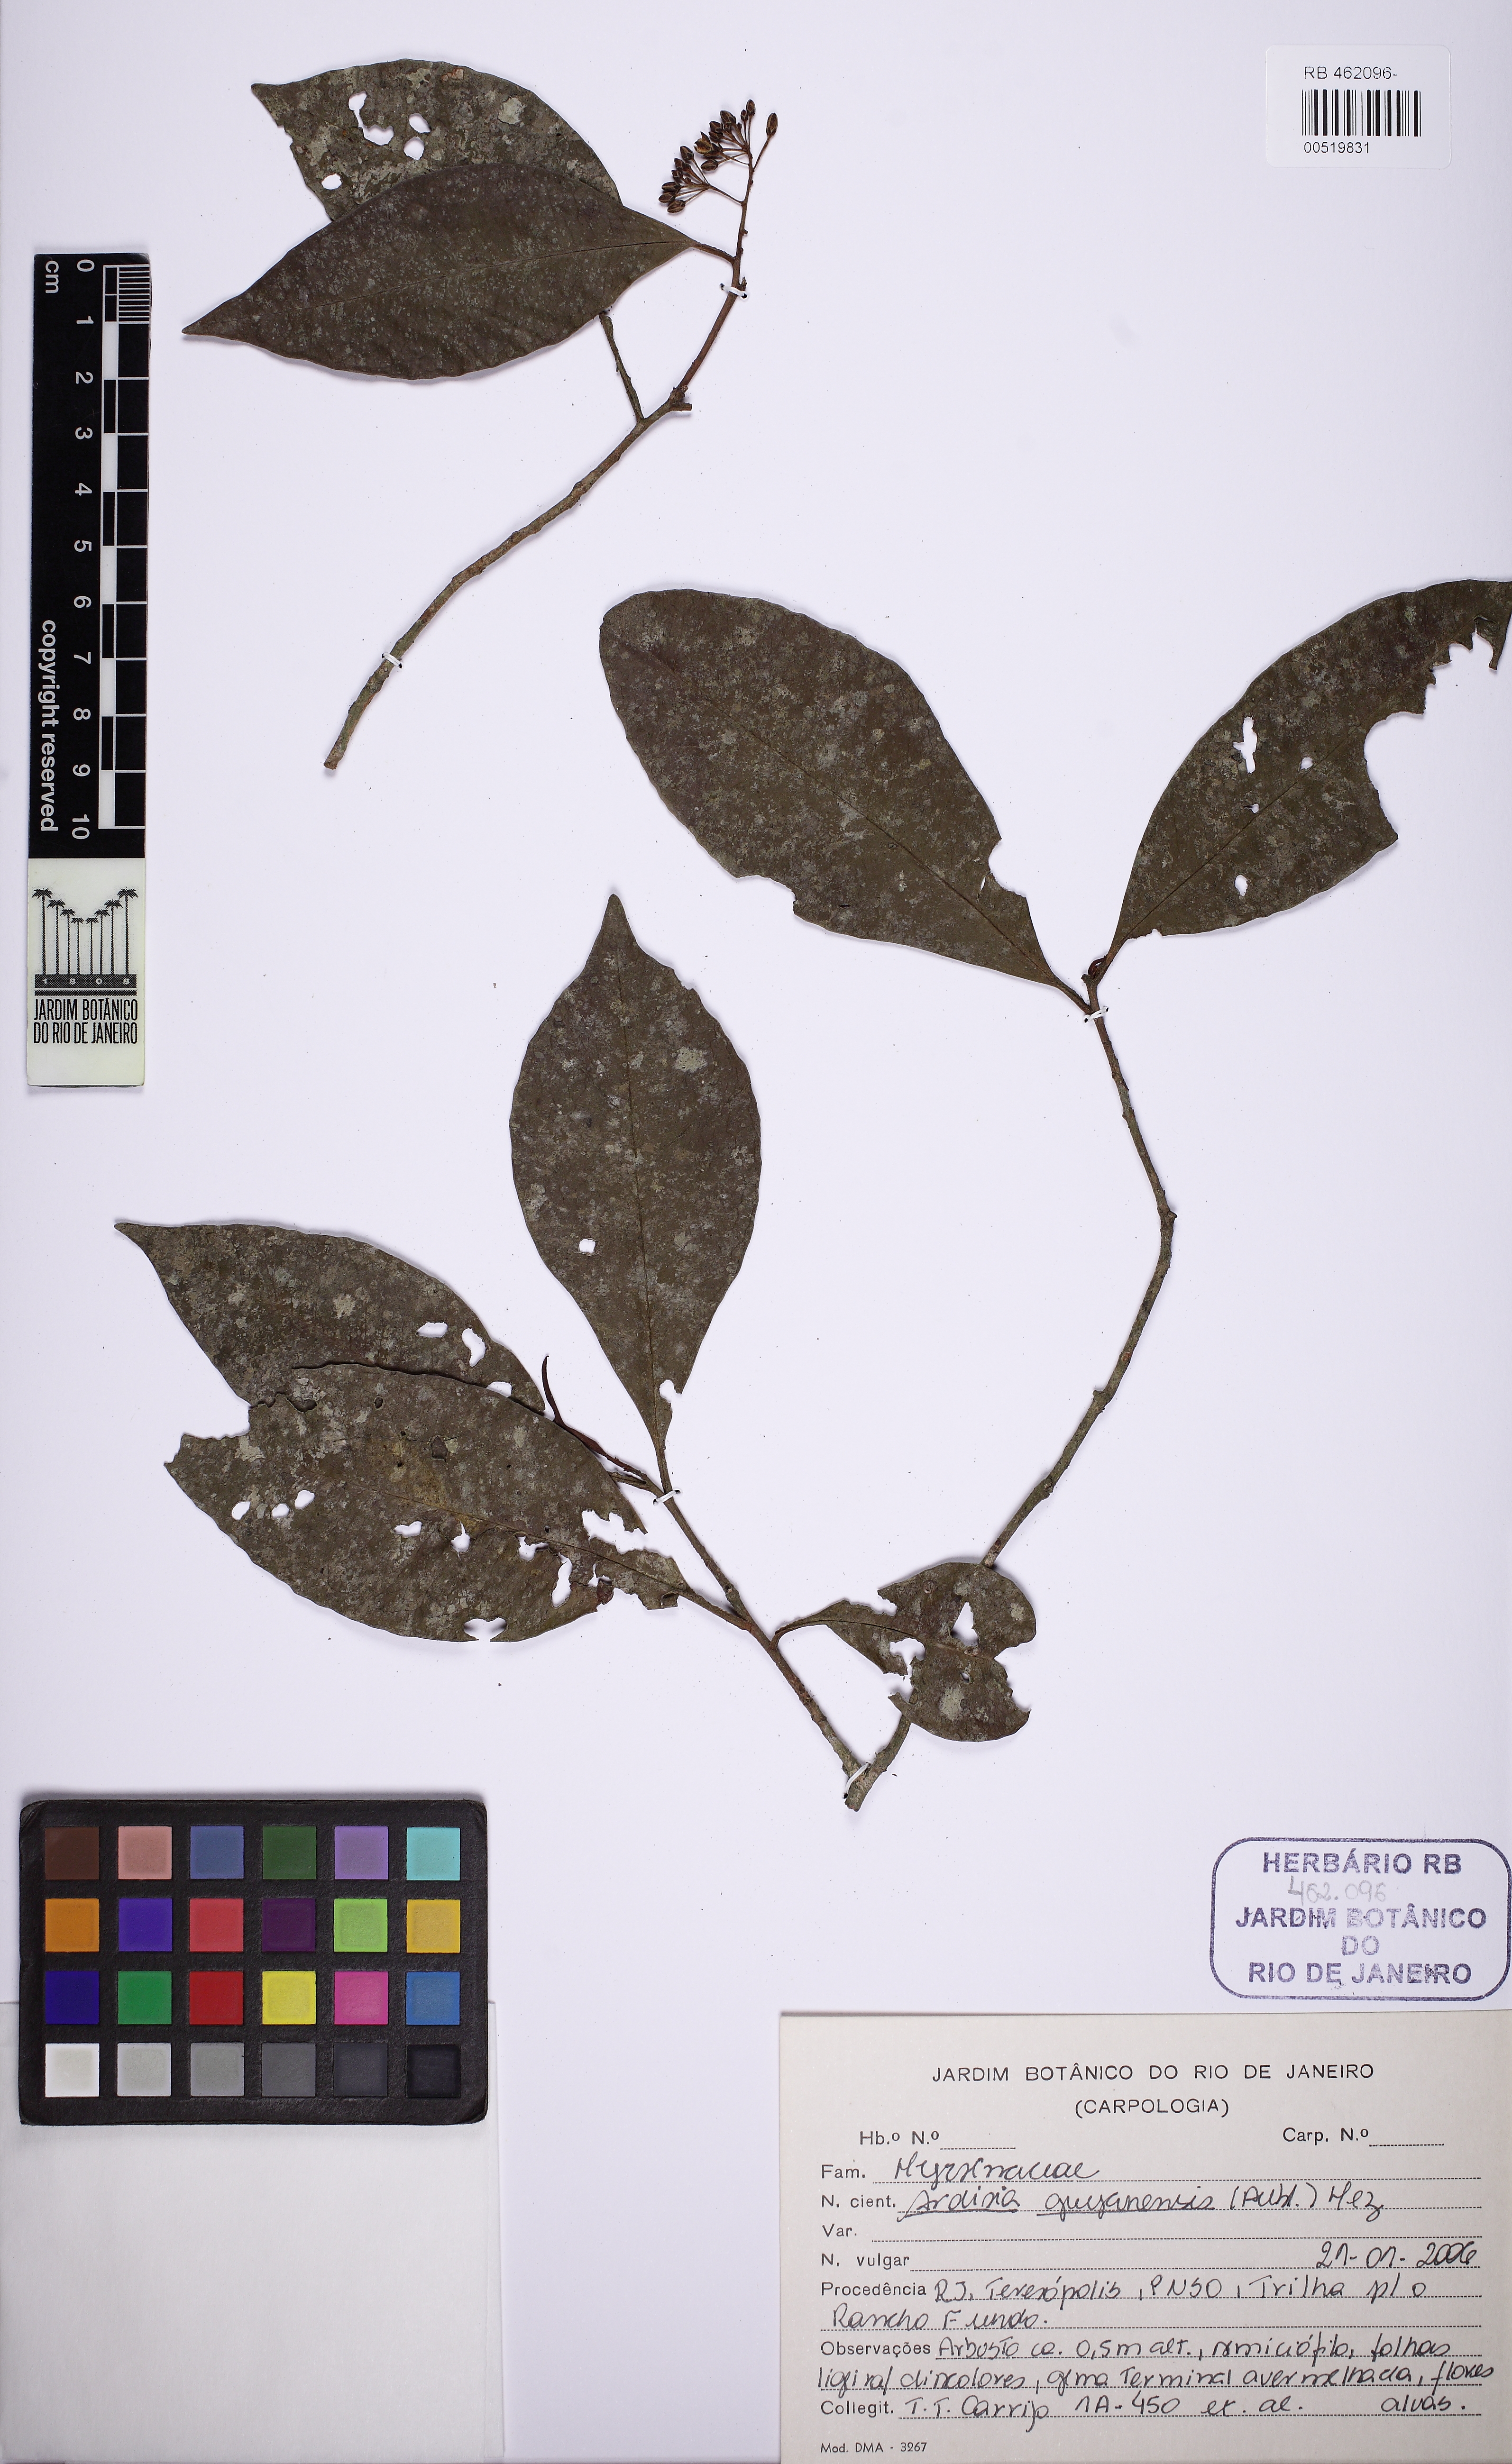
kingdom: Plantae
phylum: Tracheophyta
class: Magnoliopsida
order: Ericales
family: Primulaceae
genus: Stylogyne
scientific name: Stylogyne pauciflora
